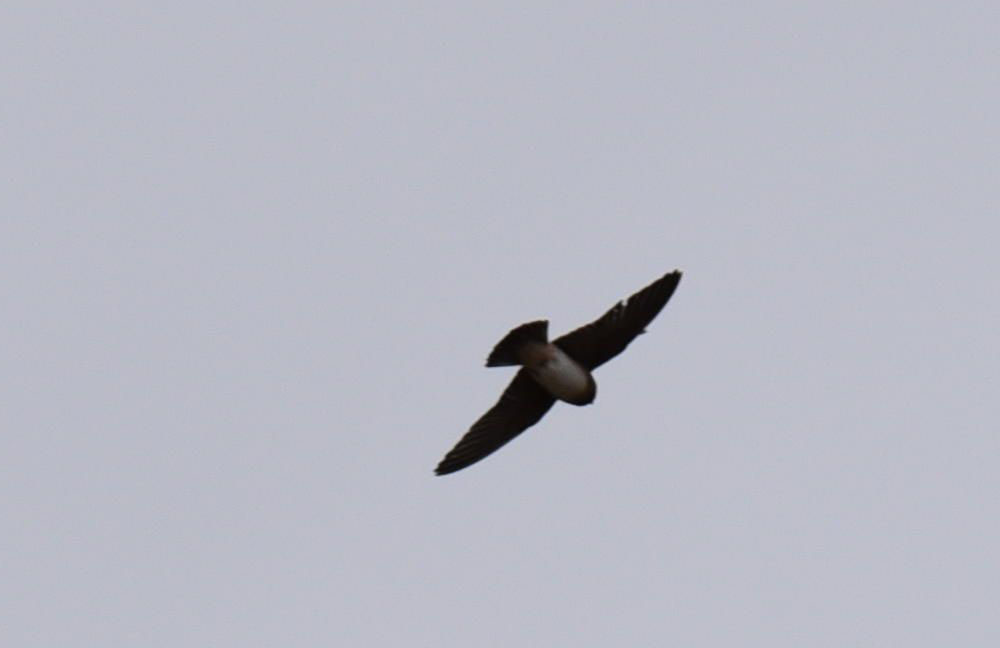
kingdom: Animalia
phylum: Chordata
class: Aves
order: Passeriformes
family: Hirundinidae
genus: Petrochelidon
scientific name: Petrochelidon pyrrhonota
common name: American cliff swallow
